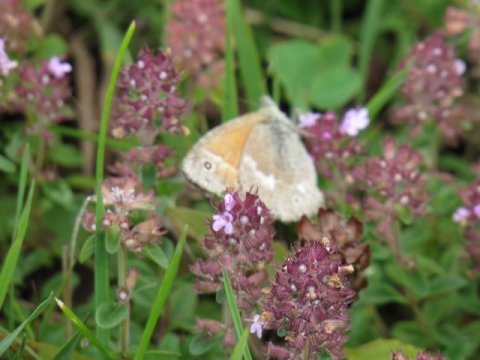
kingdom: Animalia
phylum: Arthropoda
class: Insecta
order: Lepidoptera
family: Nymphalidae
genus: Coenonympha
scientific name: Coenonympha tullia
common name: Large Heath
